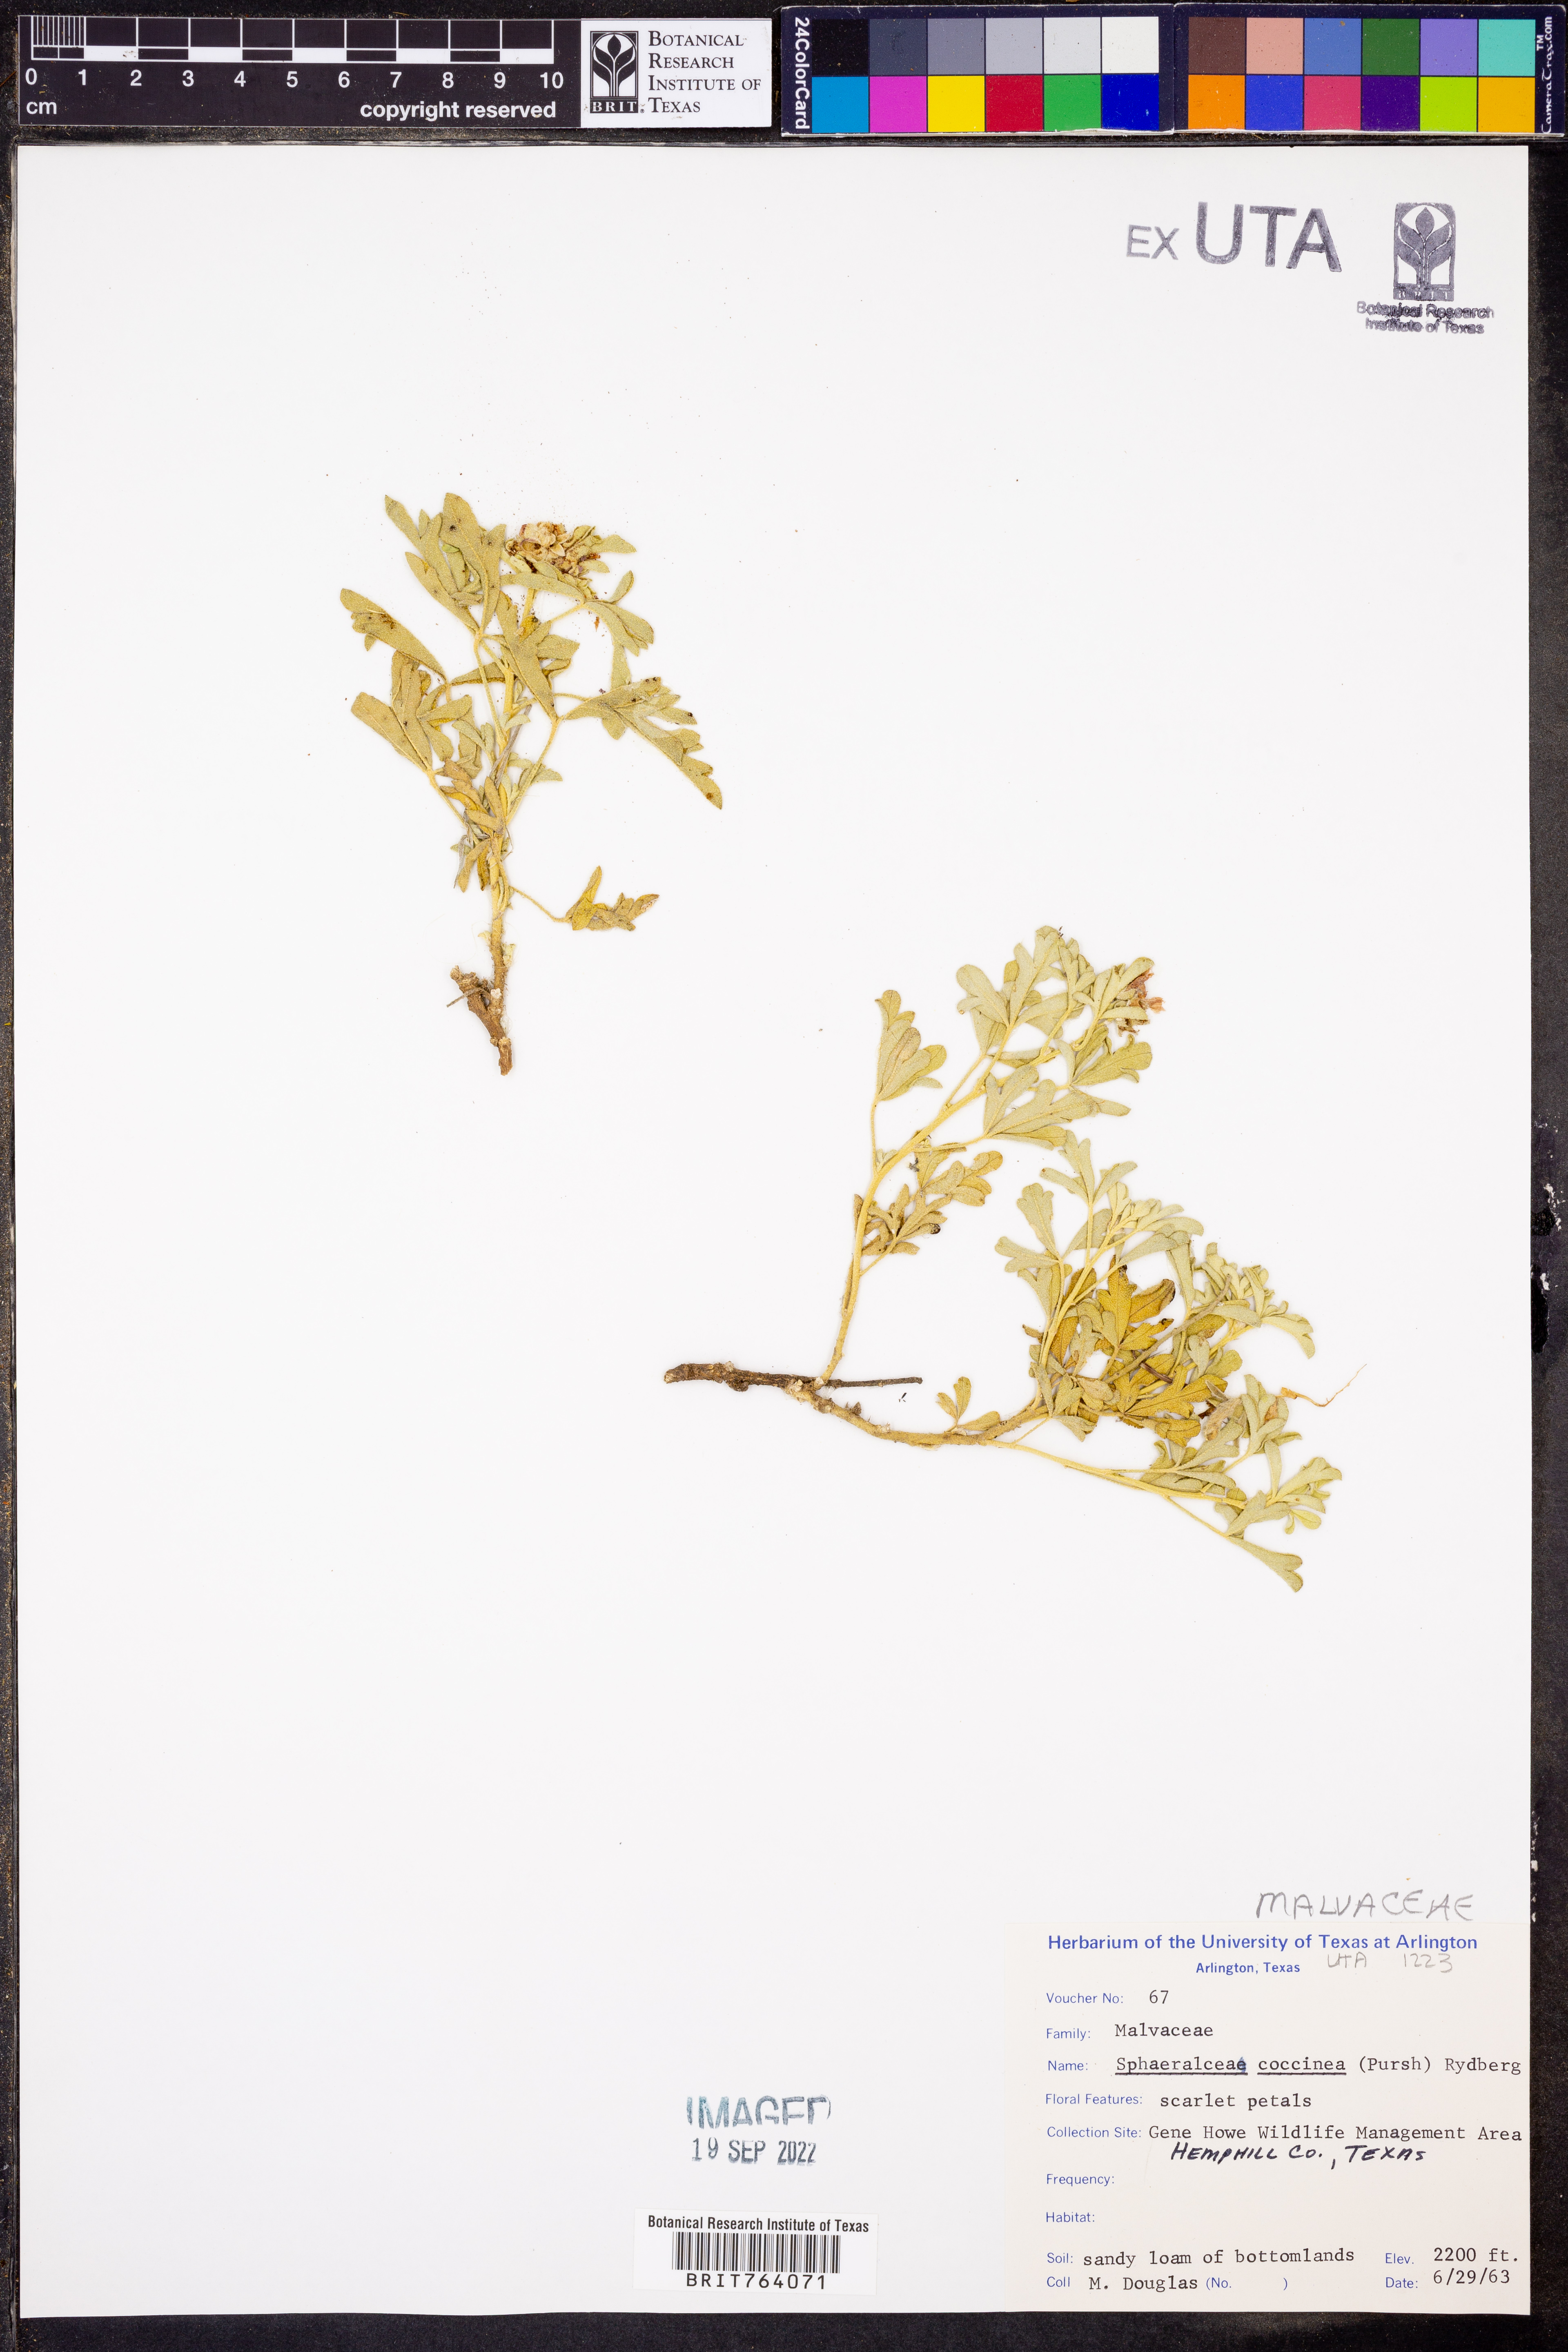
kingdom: Plantae
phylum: Tracheophyta
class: Magnoliopsida
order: Malvales
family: Malvaceae
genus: Sphaeralcea
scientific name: Sphaeralcea coccinea
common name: Moss-rose
